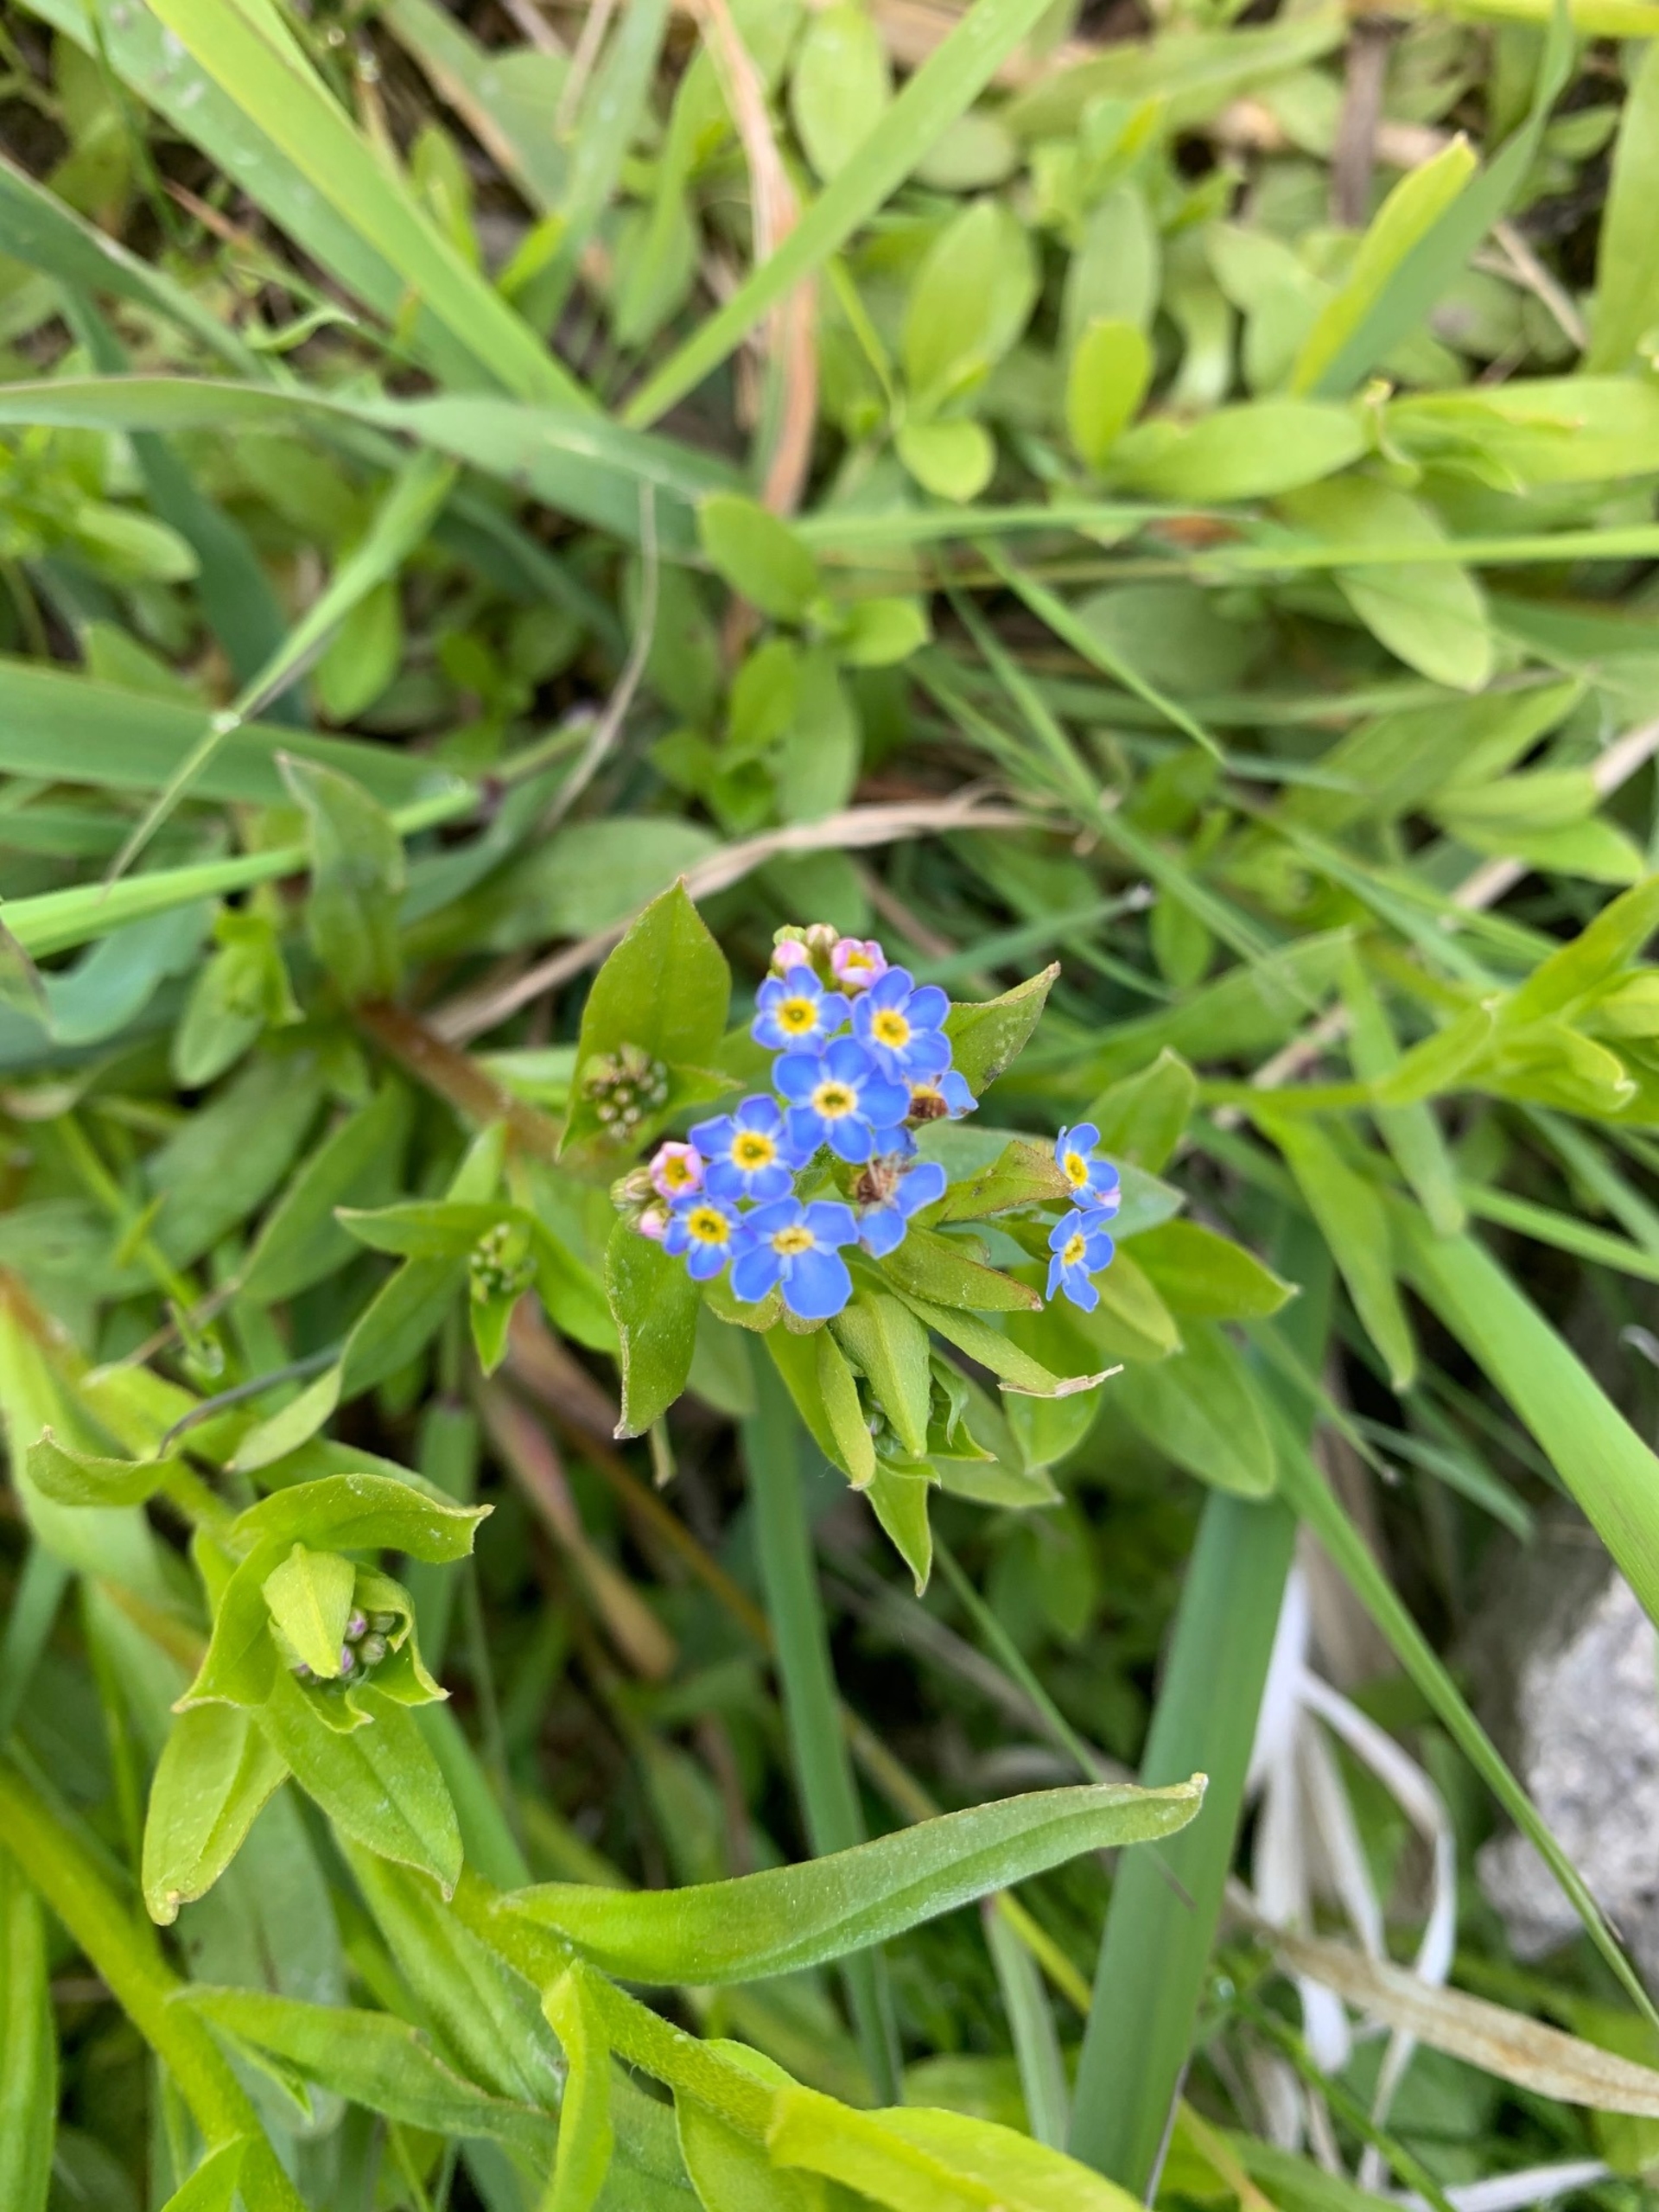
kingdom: Plantae
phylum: Tracheophyta
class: Magnoliopsida
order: Boraginales
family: Boraginaceae
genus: Pentaglottis
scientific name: Pentaglottis sempervirens
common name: Femtunge
